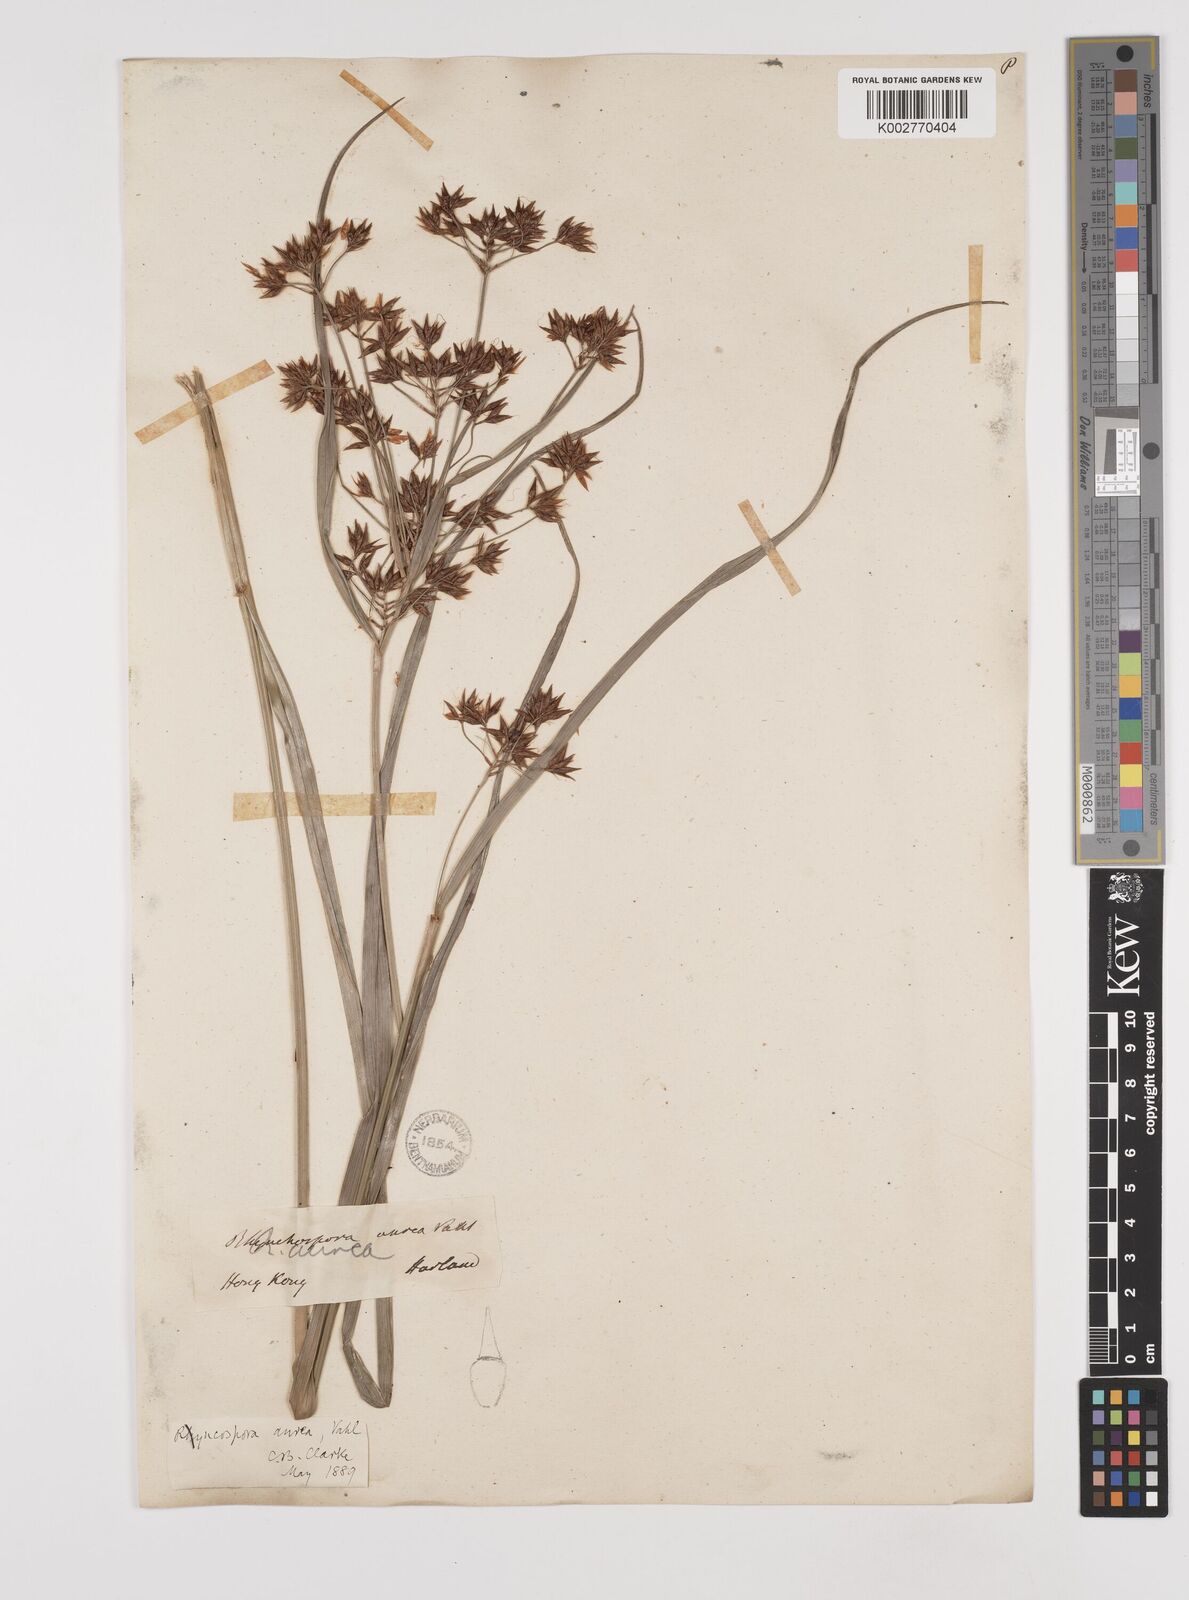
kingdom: Plantae
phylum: Tracheophyta
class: Liliopsida
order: Poales
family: Cyperaceae
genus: Rhynchospora
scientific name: Rhynchospora corymbosa
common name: Golden beak sedge
